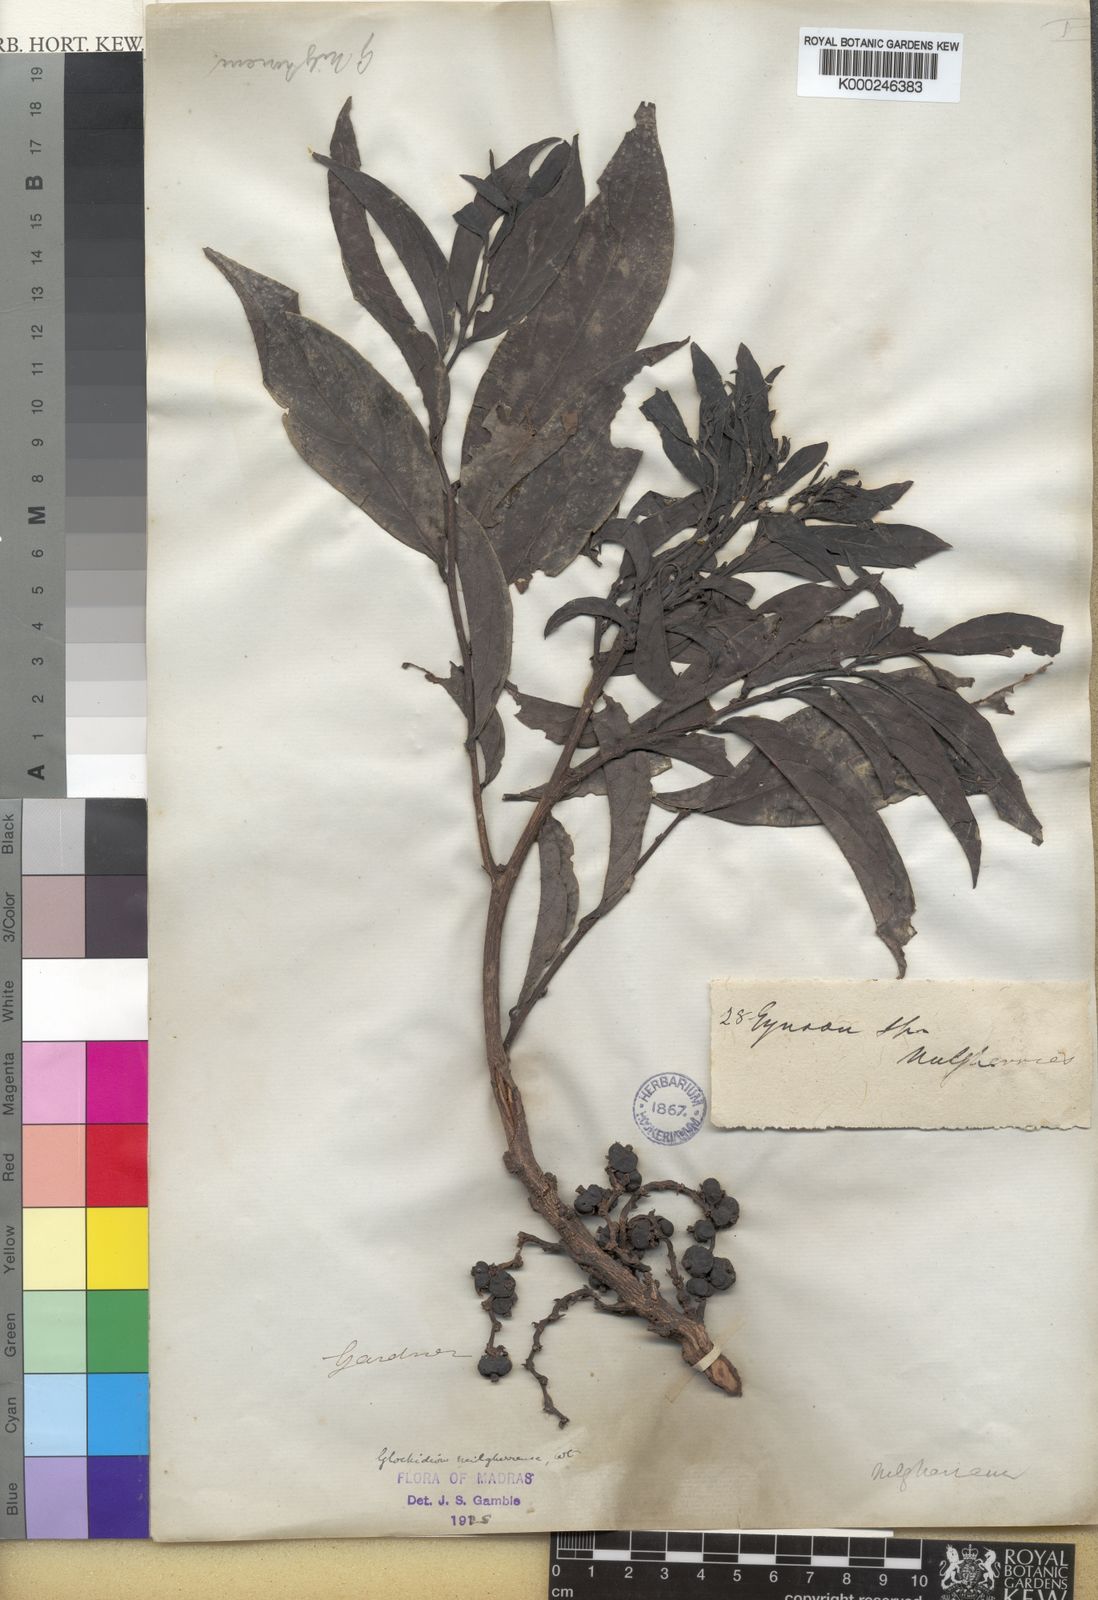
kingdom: Plantae
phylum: Tracheophyta
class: Magnoliopsida
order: Malpighiales
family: Phyllanthaceae
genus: Glochidion
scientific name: Glochidion candolleanum
